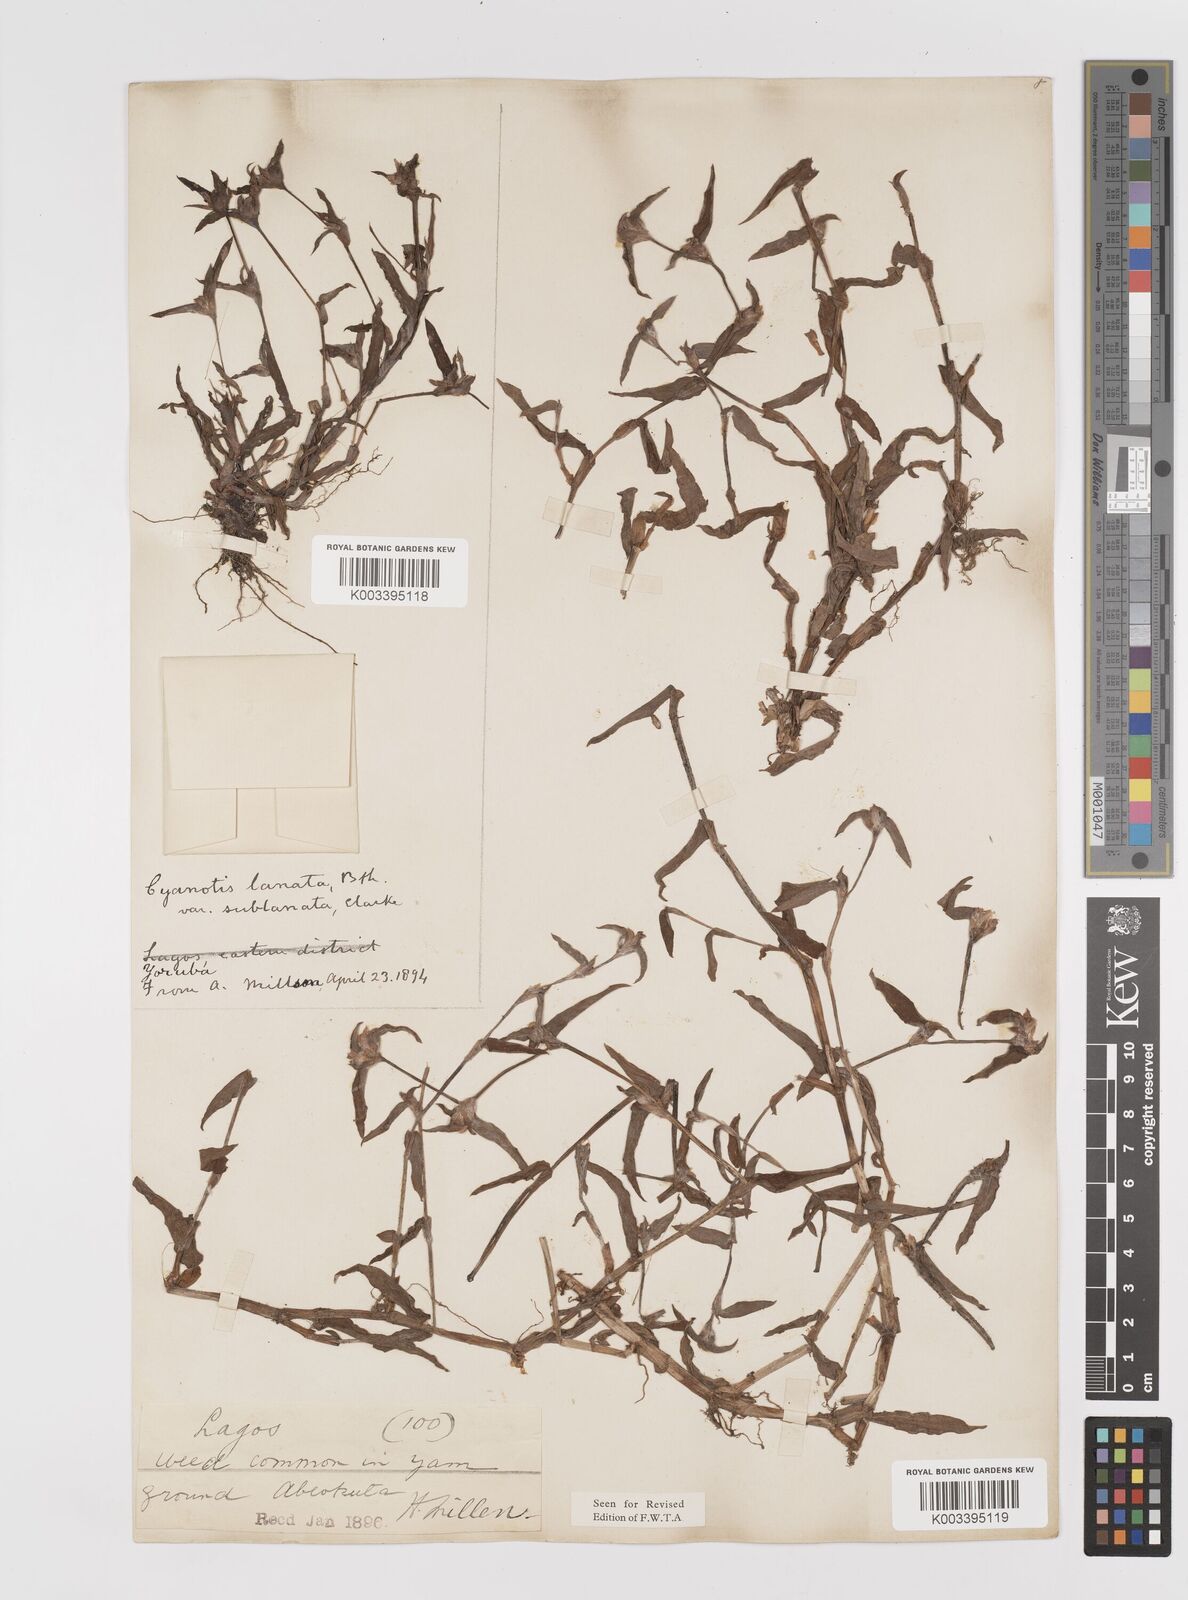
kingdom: Plantae
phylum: Tracheophyta
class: Liliopsida
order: Commelinales
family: Commelinaceae
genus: Cyanotis
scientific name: Cyanotis lanata
